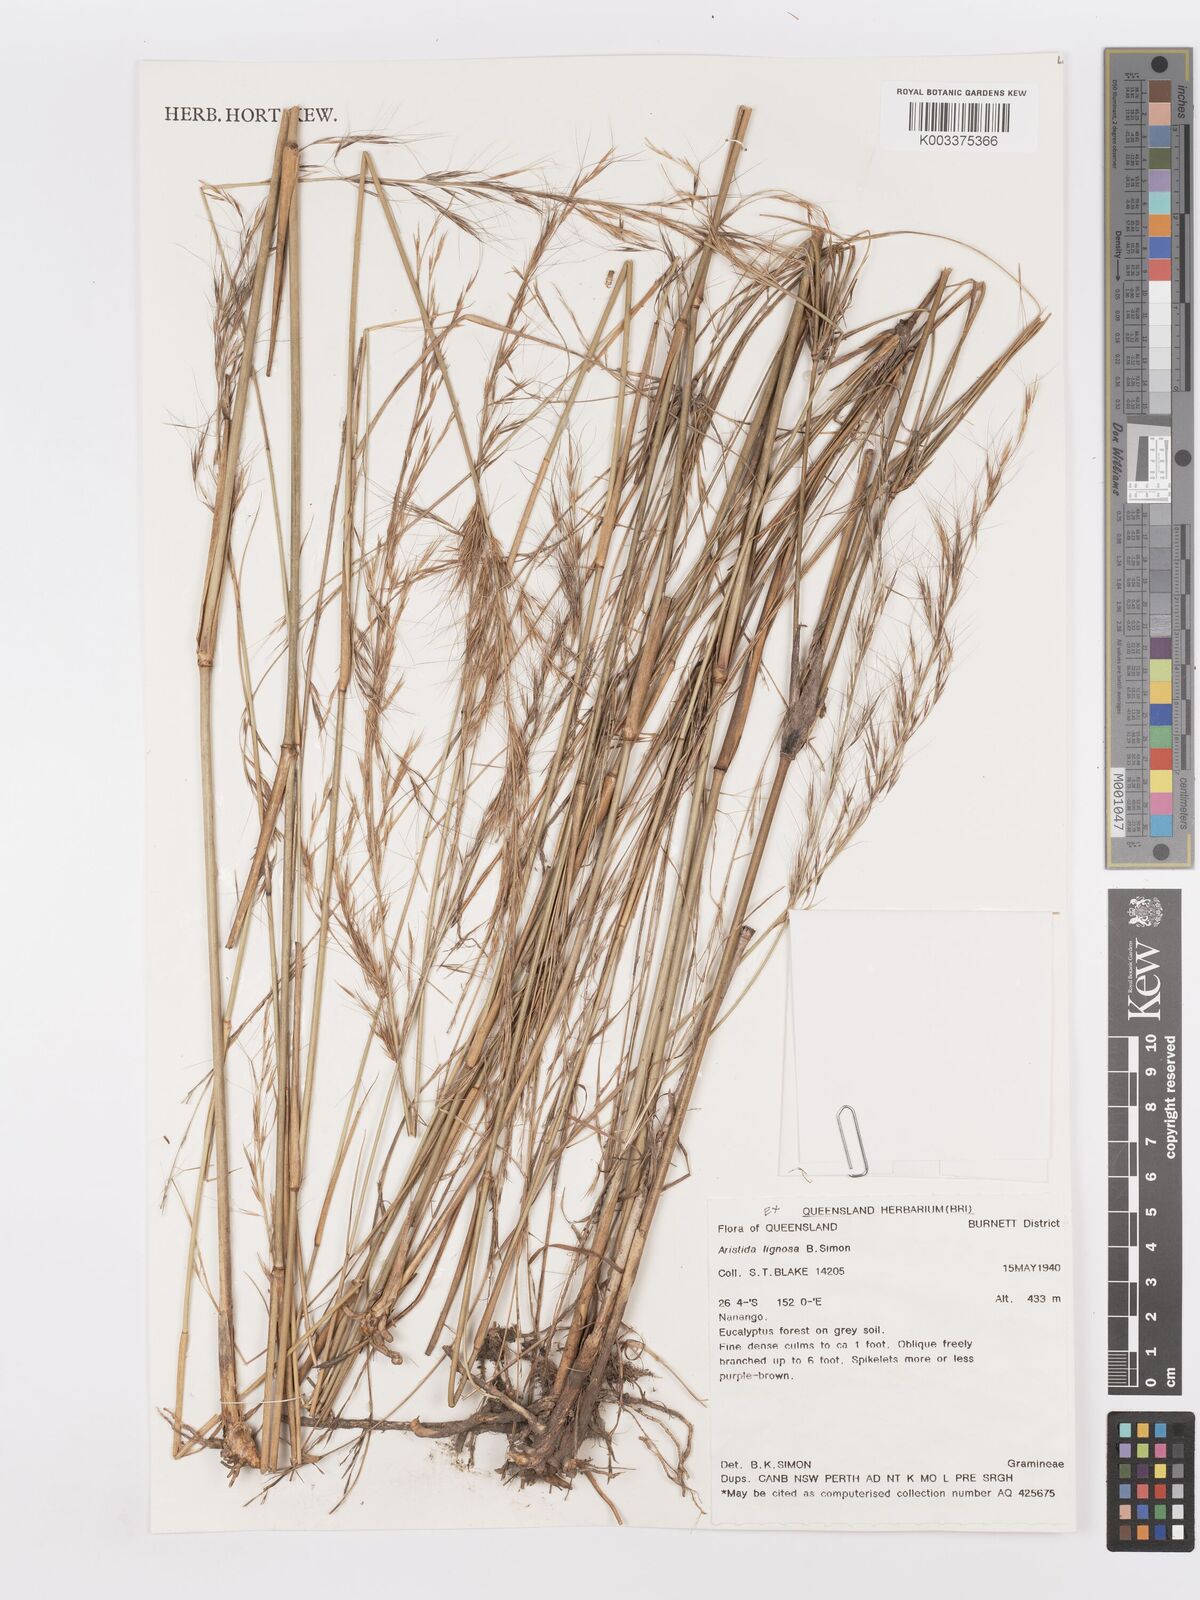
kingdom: Plantae
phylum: Tracheophyta
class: Liliopsida
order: Poales
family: Poaceae
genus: Aristida
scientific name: Aristida lignosa
